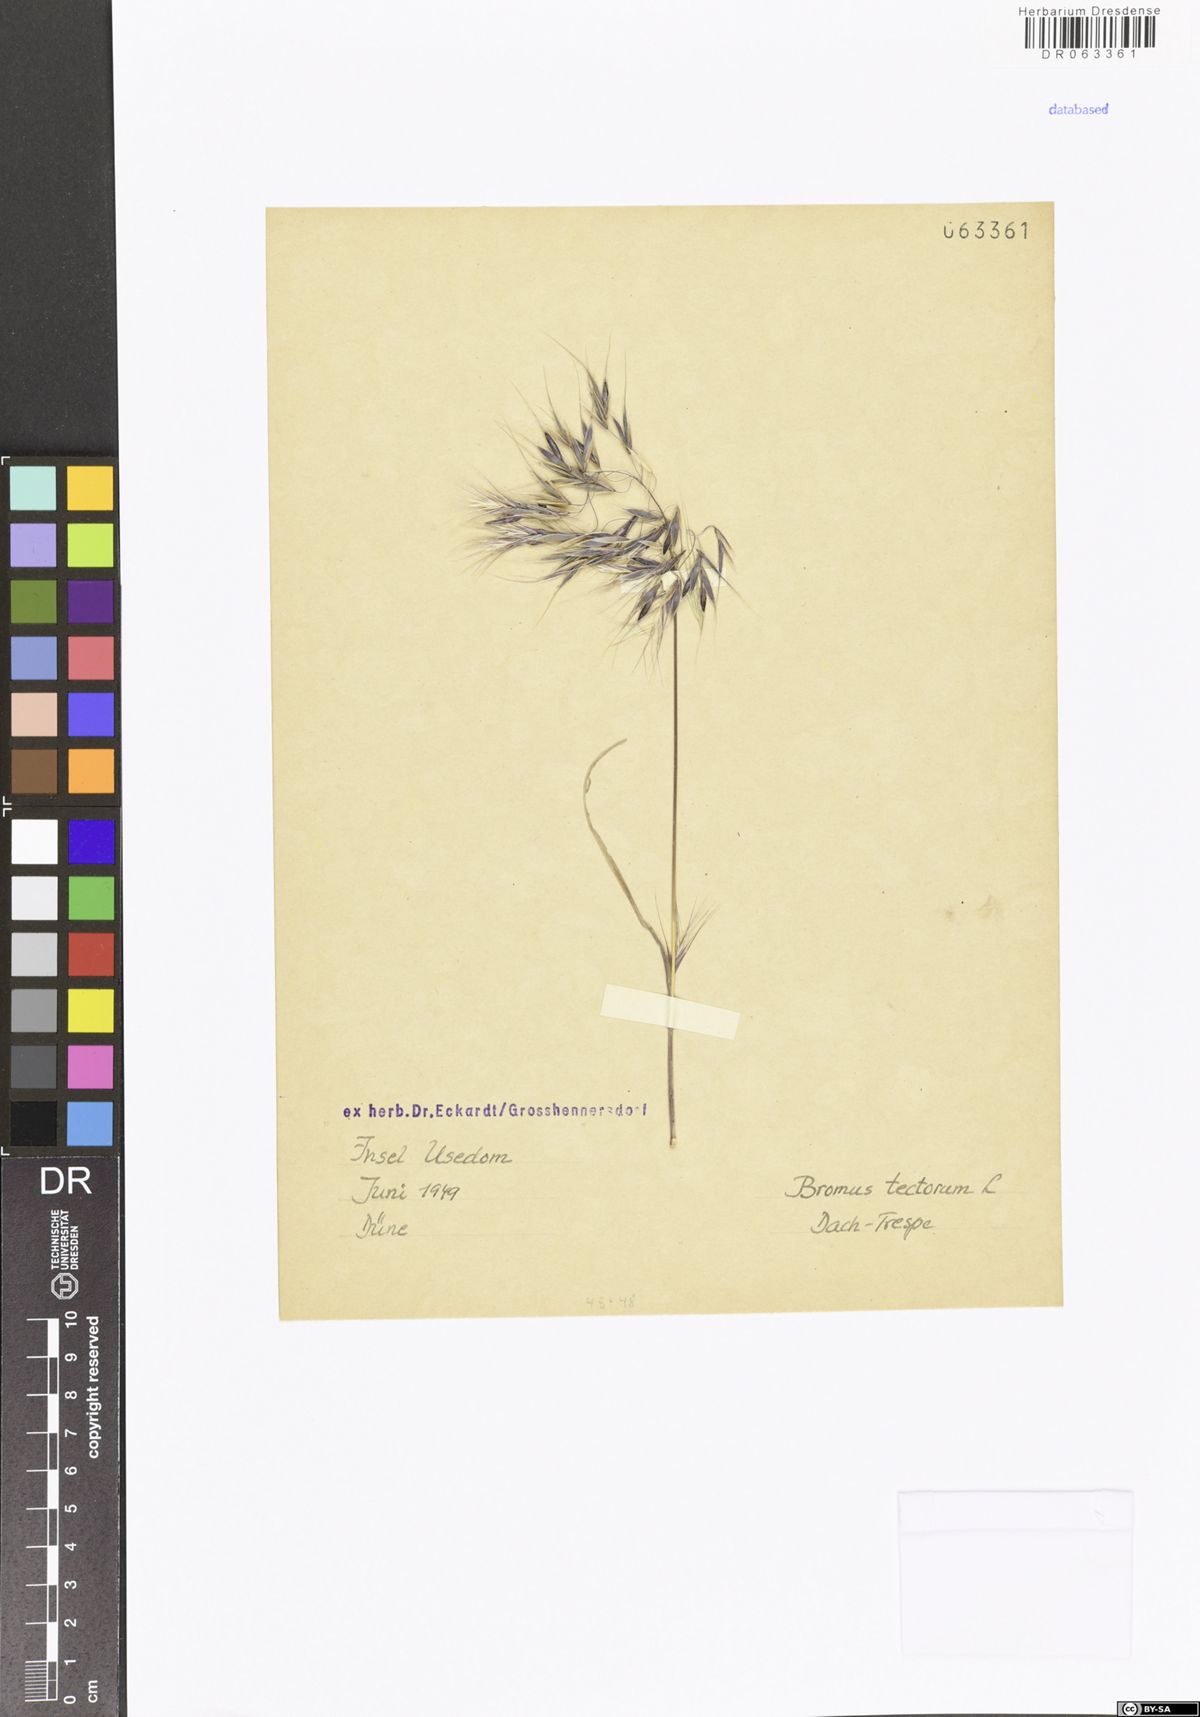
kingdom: Plantae
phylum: Tracheophyta
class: Liliopsida
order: Poales
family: Poaceae
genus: Bromus
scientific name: Bromus tectorum
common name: Cheatgrass
